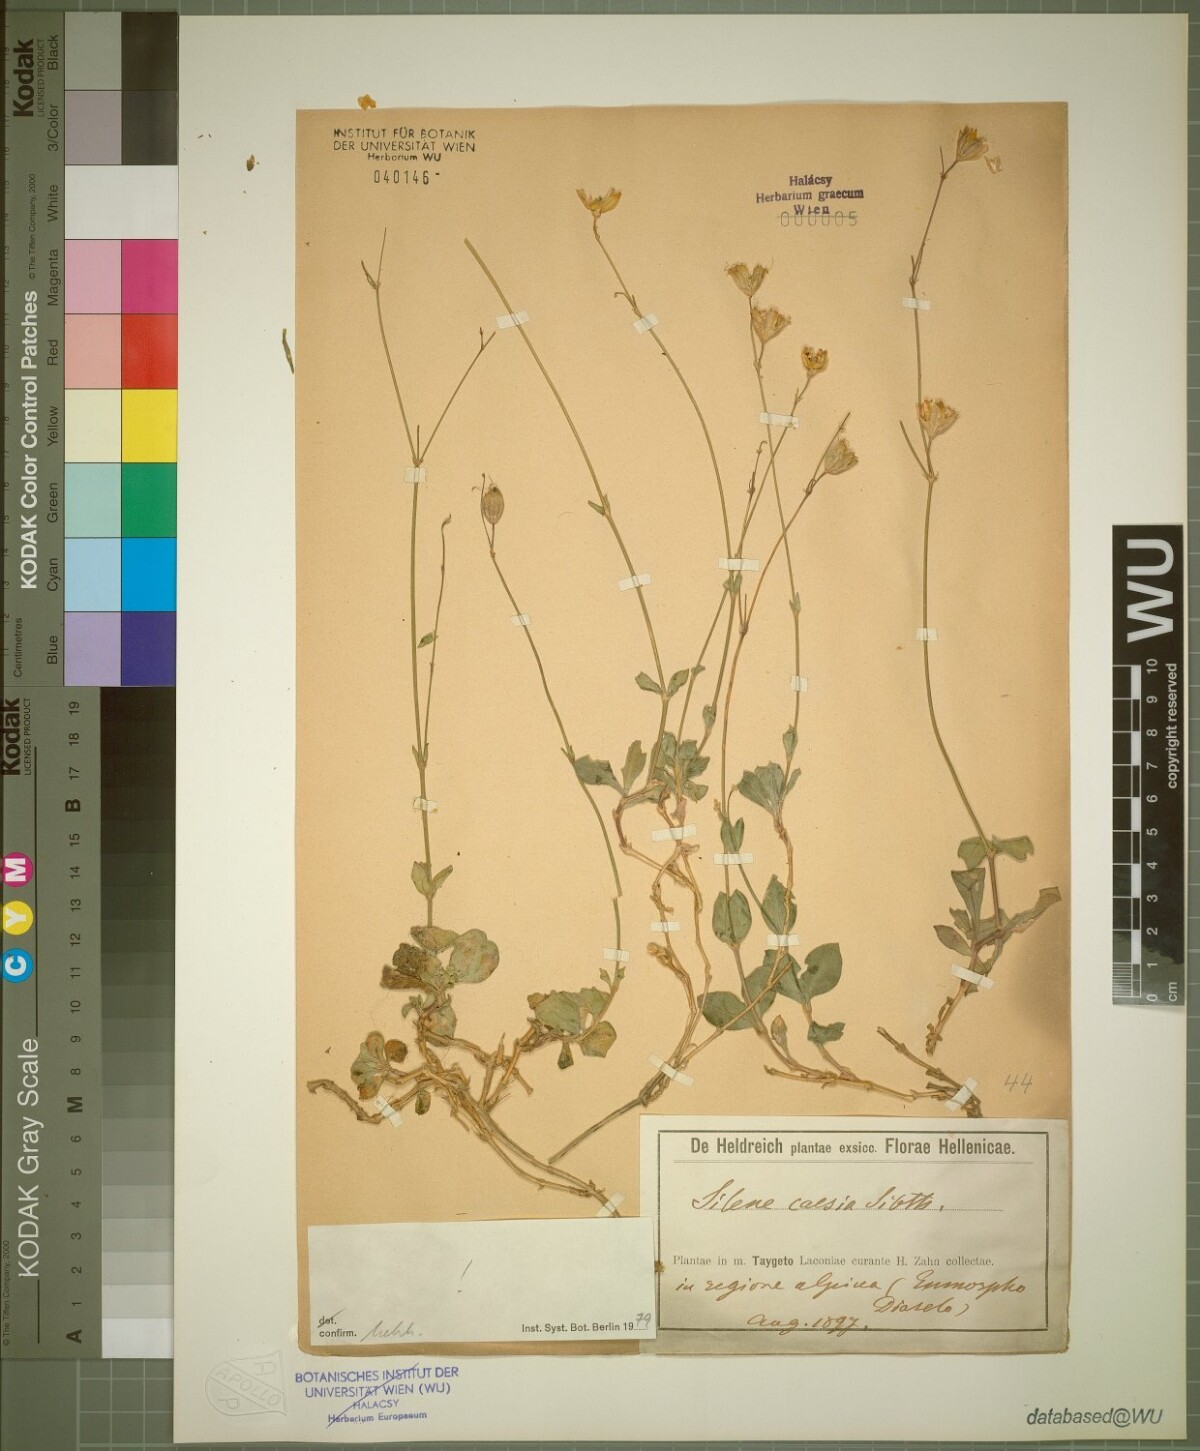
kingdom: Plantae
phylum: Tracheophyta
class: Magnoliopsida
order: Caryophyllales
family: Caryophyllaceae
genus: Silene
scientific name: Silene caesia
